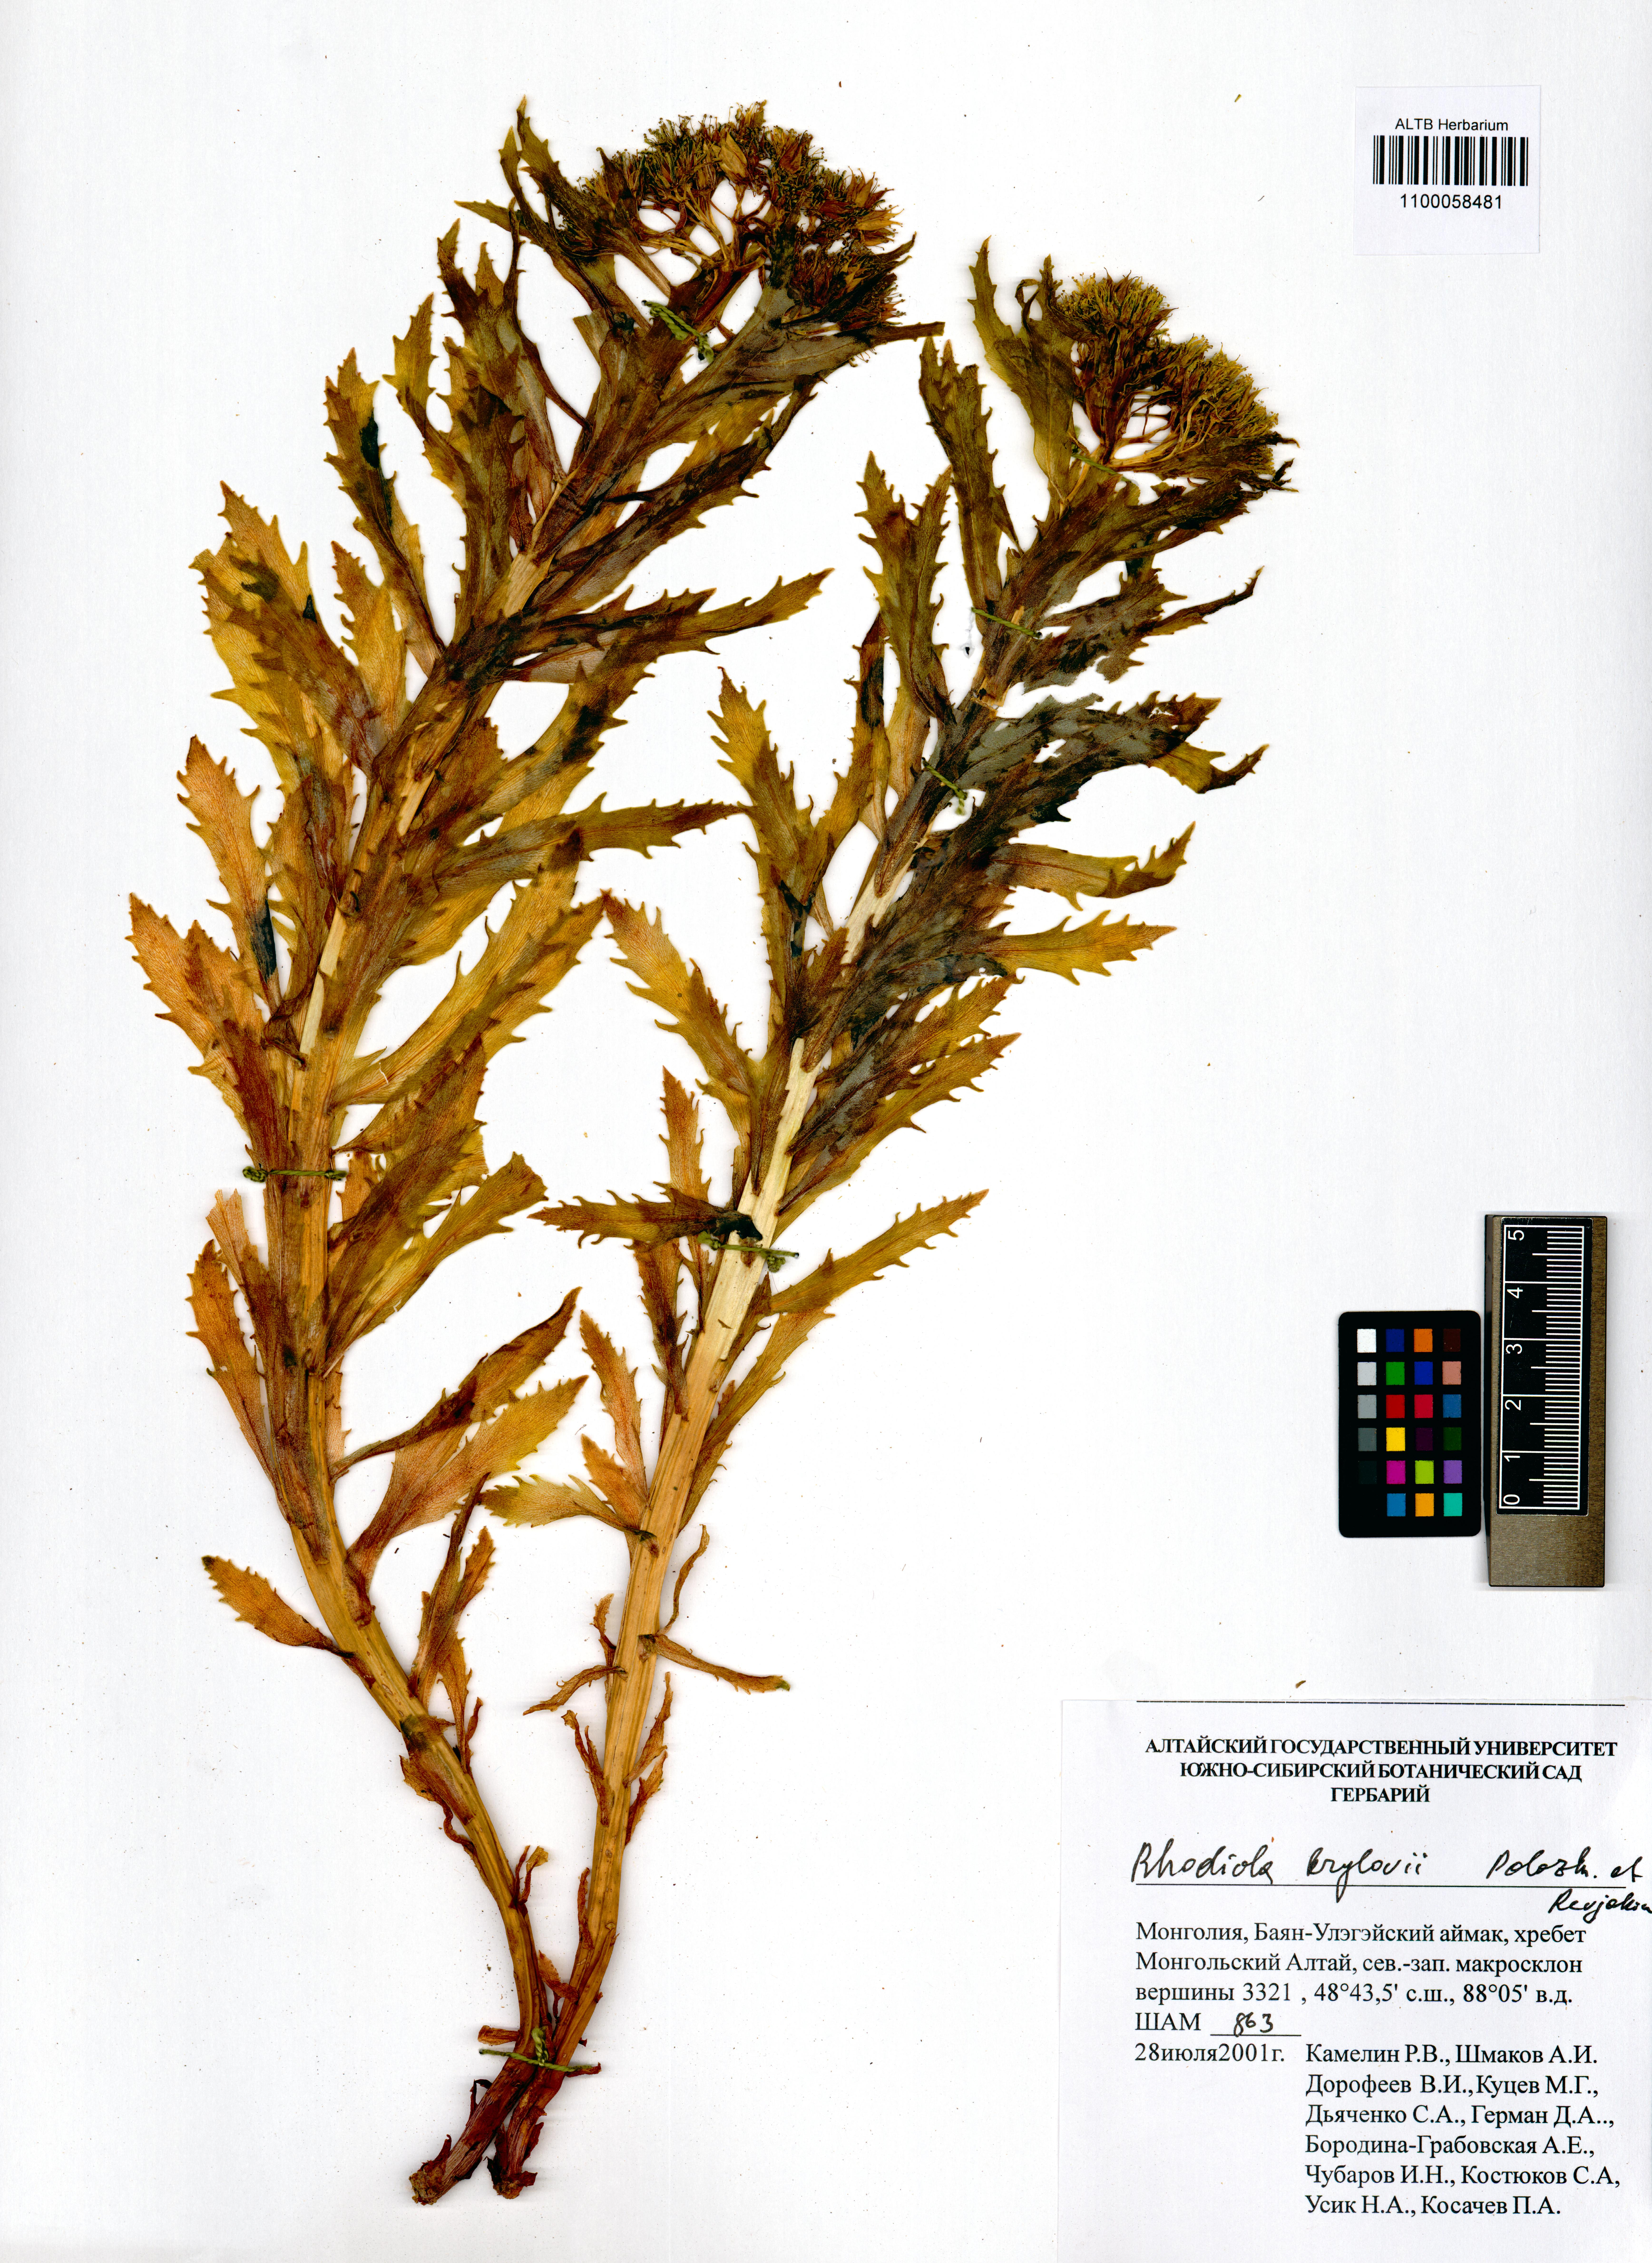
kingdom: Plantae
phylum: Tracheophyta
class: Magnoliopsida
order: Saxifragales
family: Crassulaceae
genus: Rhodiola
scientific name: Rhodiola stephani
